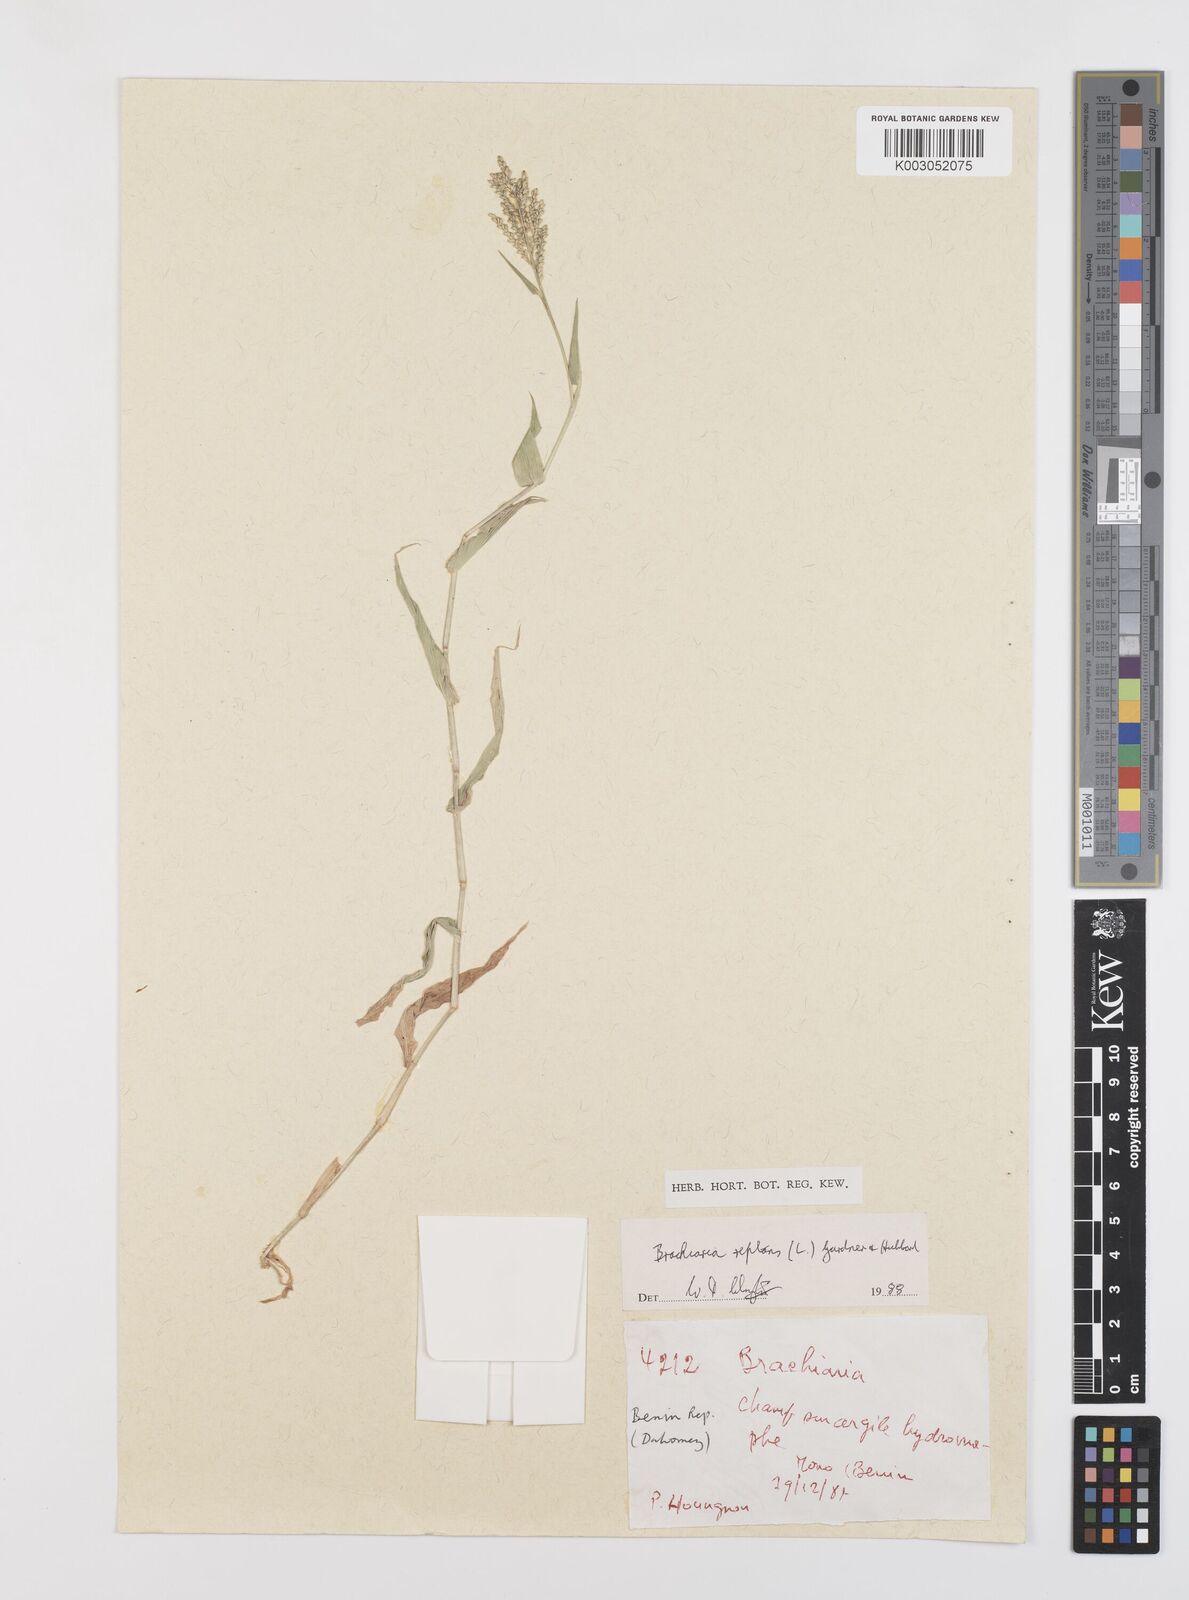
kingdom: Plantae
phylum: Tracheophyta
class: Liliopsida
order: Poales
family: Poaceae
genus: Urochloa
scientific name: Urochloa reptans
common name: Sprawling signalgrass
